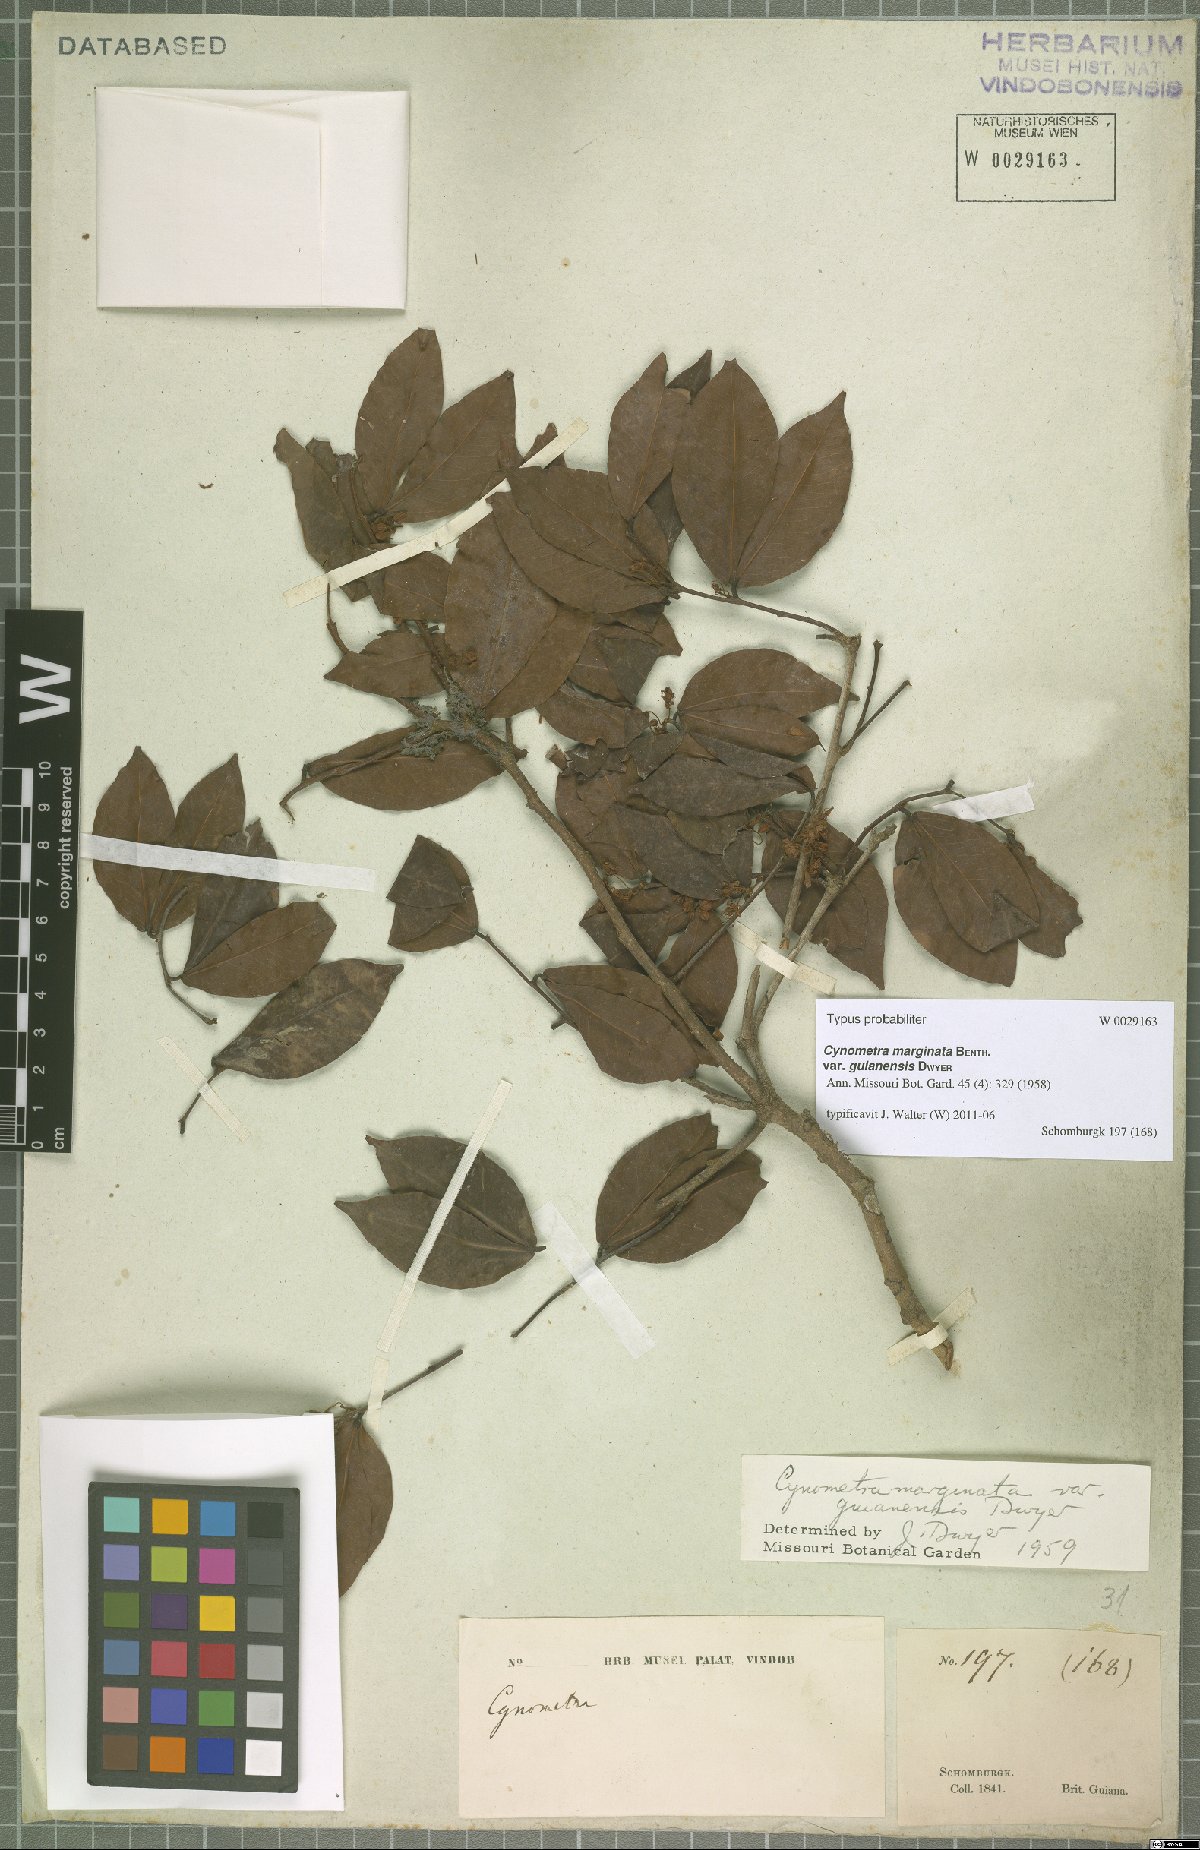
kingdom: Plantae
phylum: Tracheophyta
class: Magnoliopsida
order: Fabales
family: Fabaceae
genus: Cynometra
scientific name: Cynometra marginata
